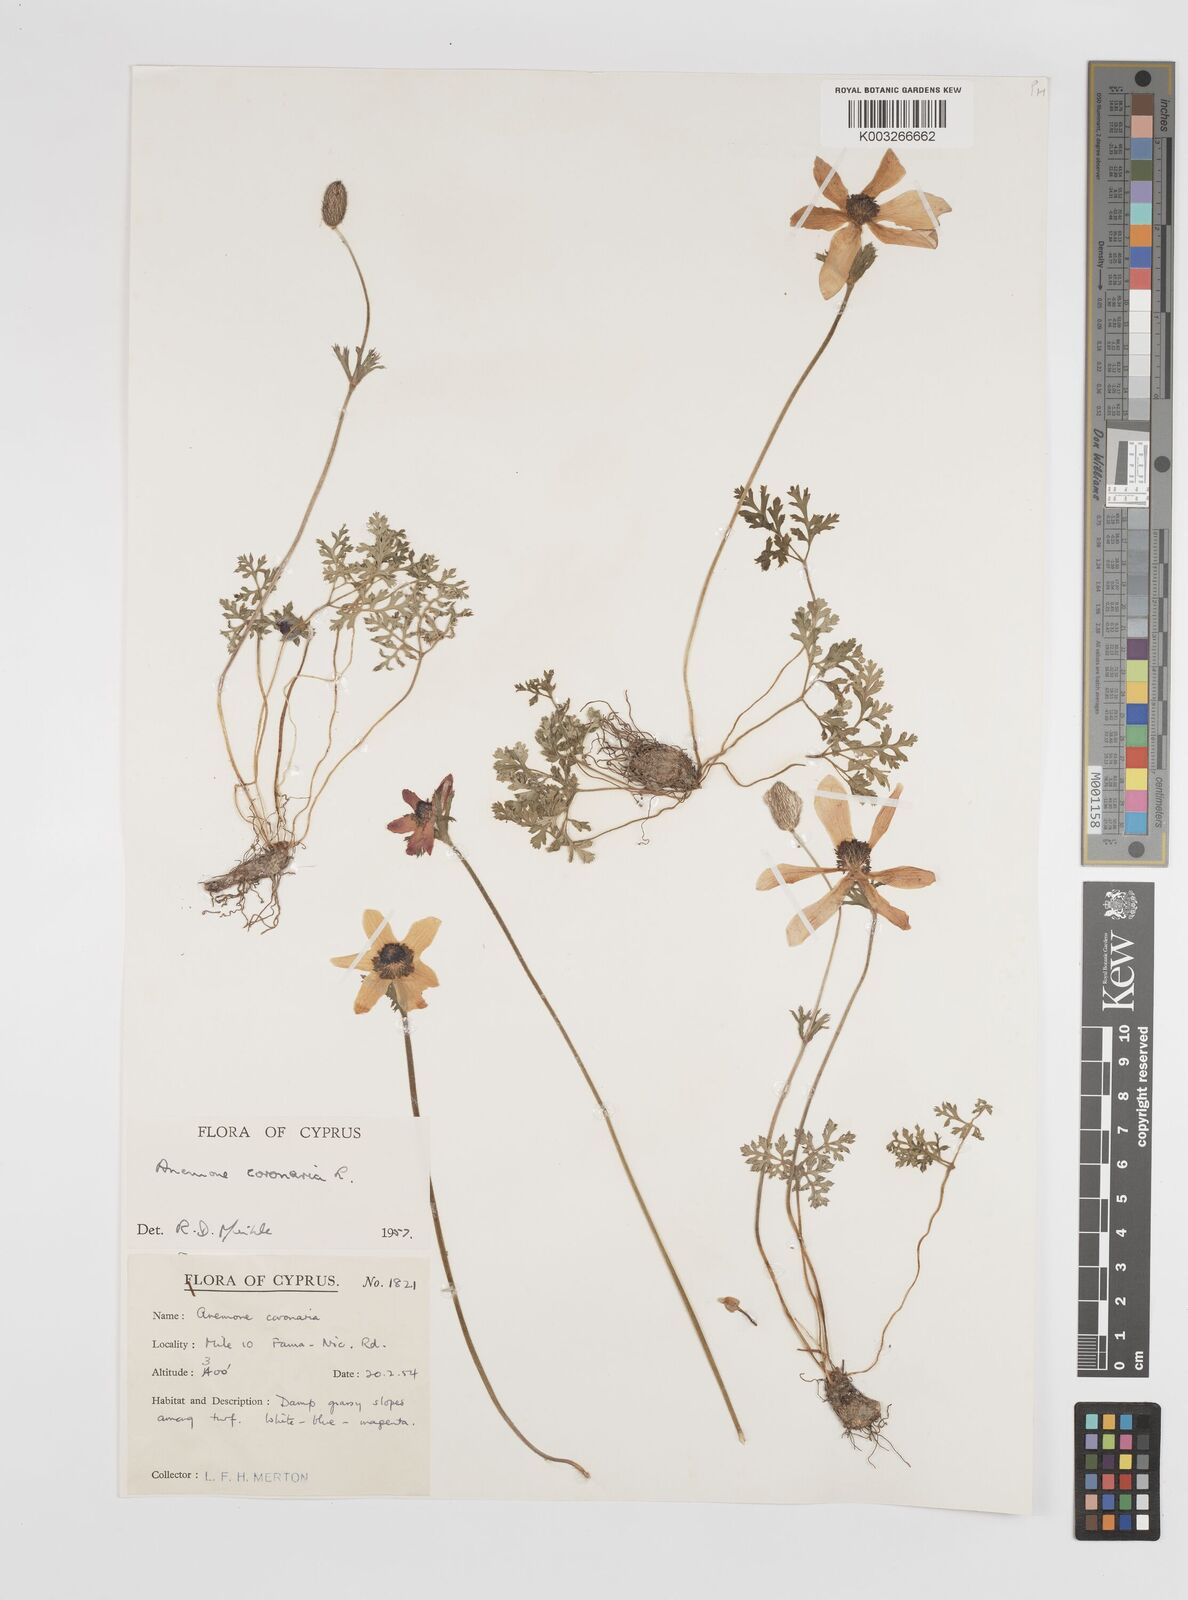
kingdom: Plantae
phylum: Tracheophyta
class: Magnoliopsida
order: Ranunculales
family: Ranunculaceae
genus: Anemone
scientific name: Anemone coronaria
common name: Poppy anemone
